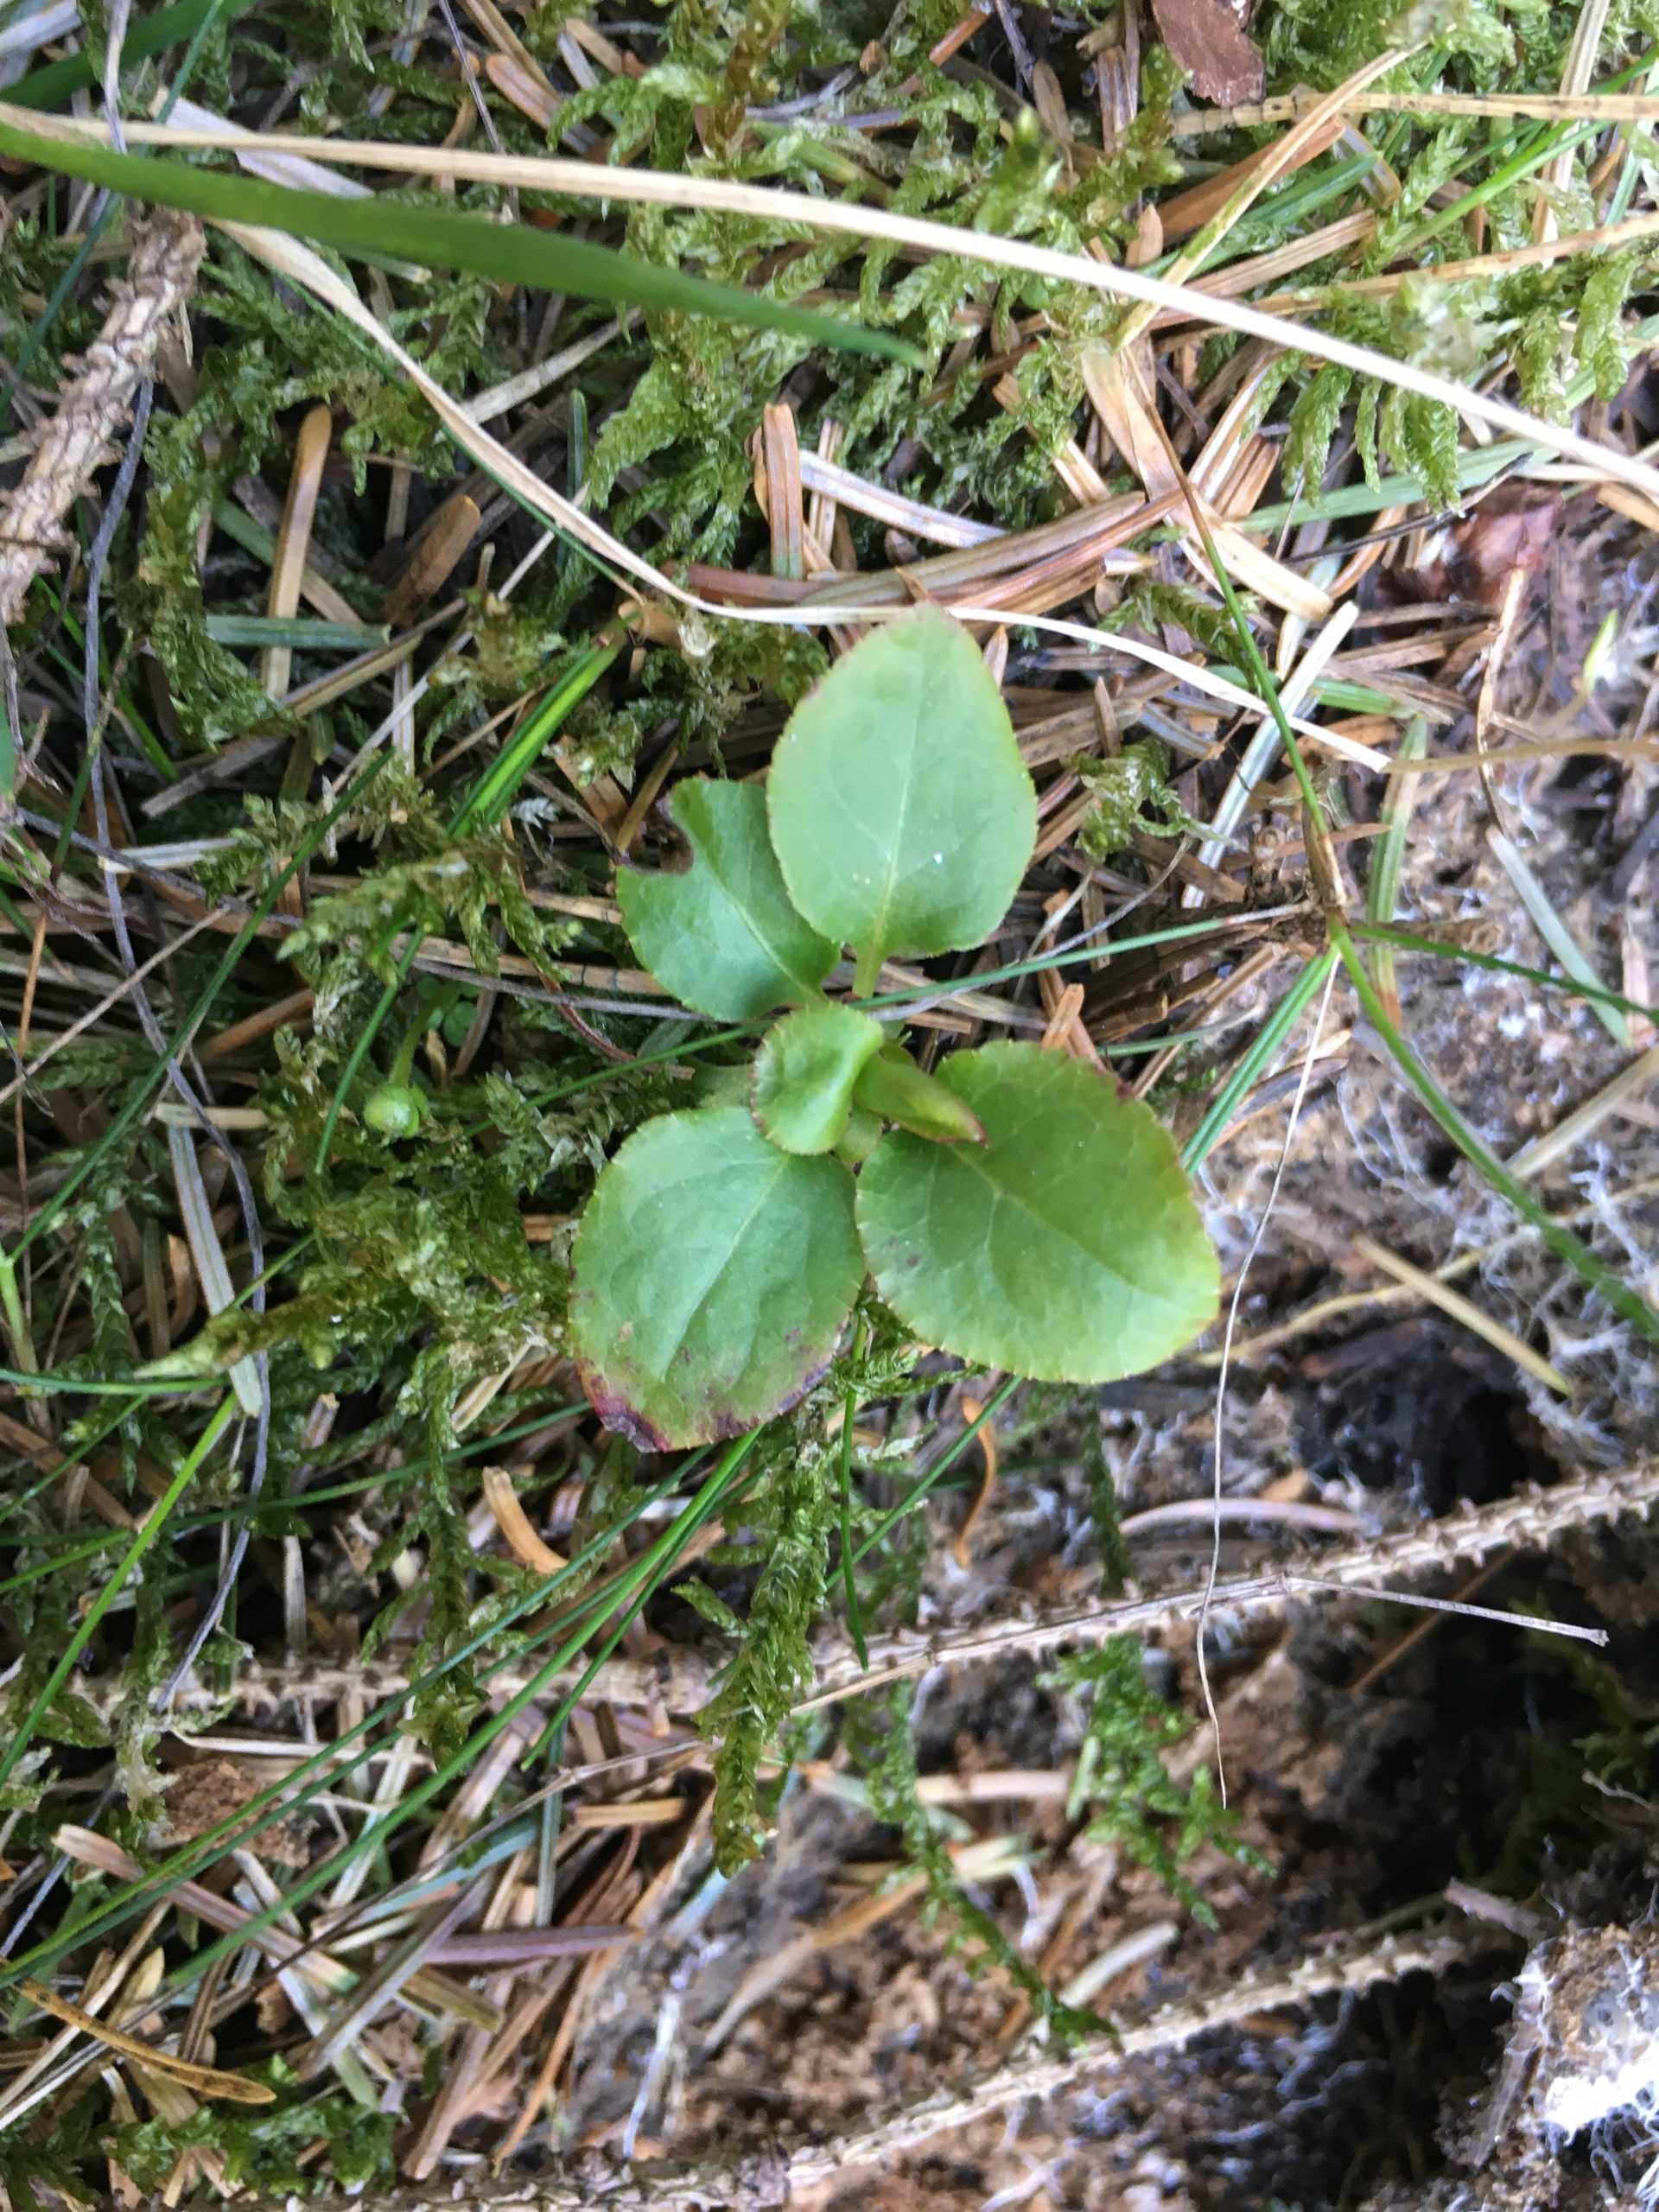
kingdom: Plantae
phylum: Tracheophyta
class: Magnoliopsida
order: Ericales
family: Ericaceae
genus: Pyrola
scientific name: Pyrola
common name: Vintergrøn (Pyrola-slægten)
